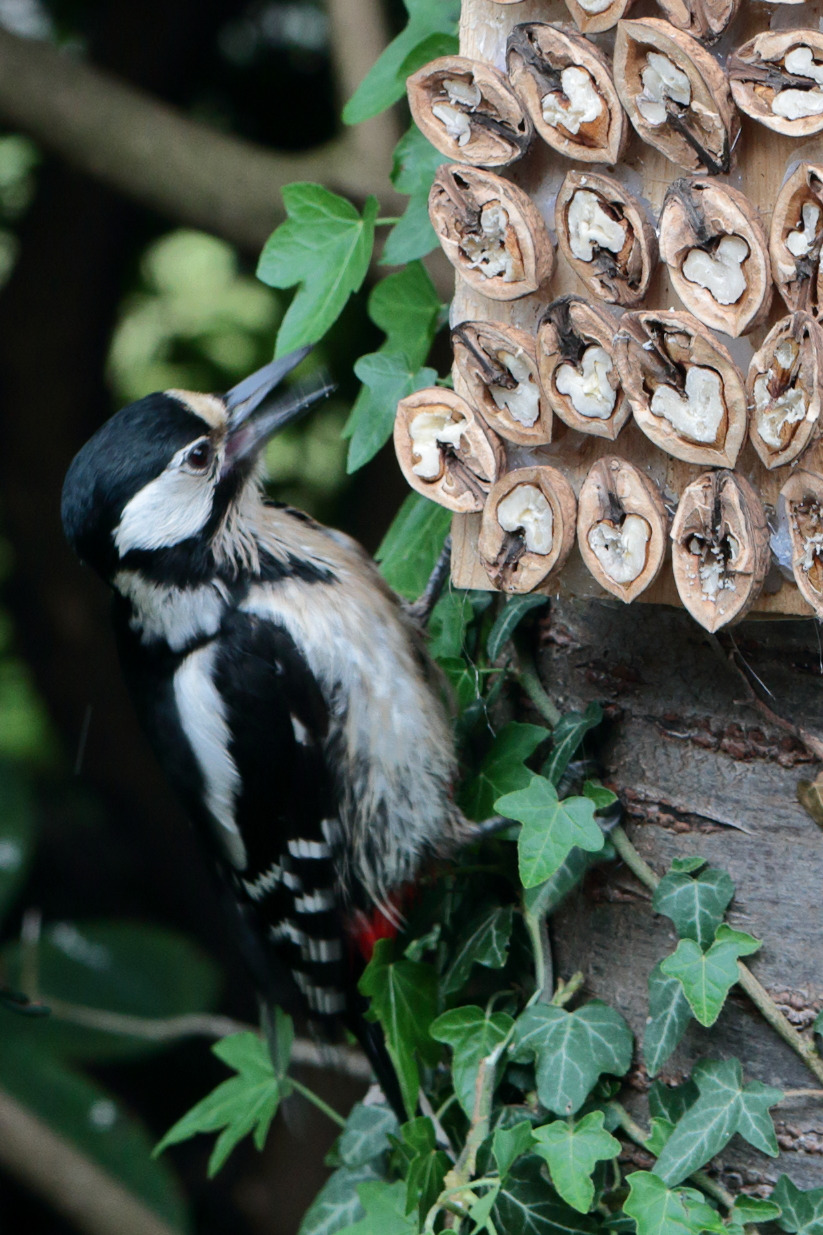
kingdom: Animalia
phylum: Chordata
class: Aves
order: Piciformes
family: Picidae
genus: Dendrocopos
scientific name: Dendrocopos major
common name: Stor flagspætte
